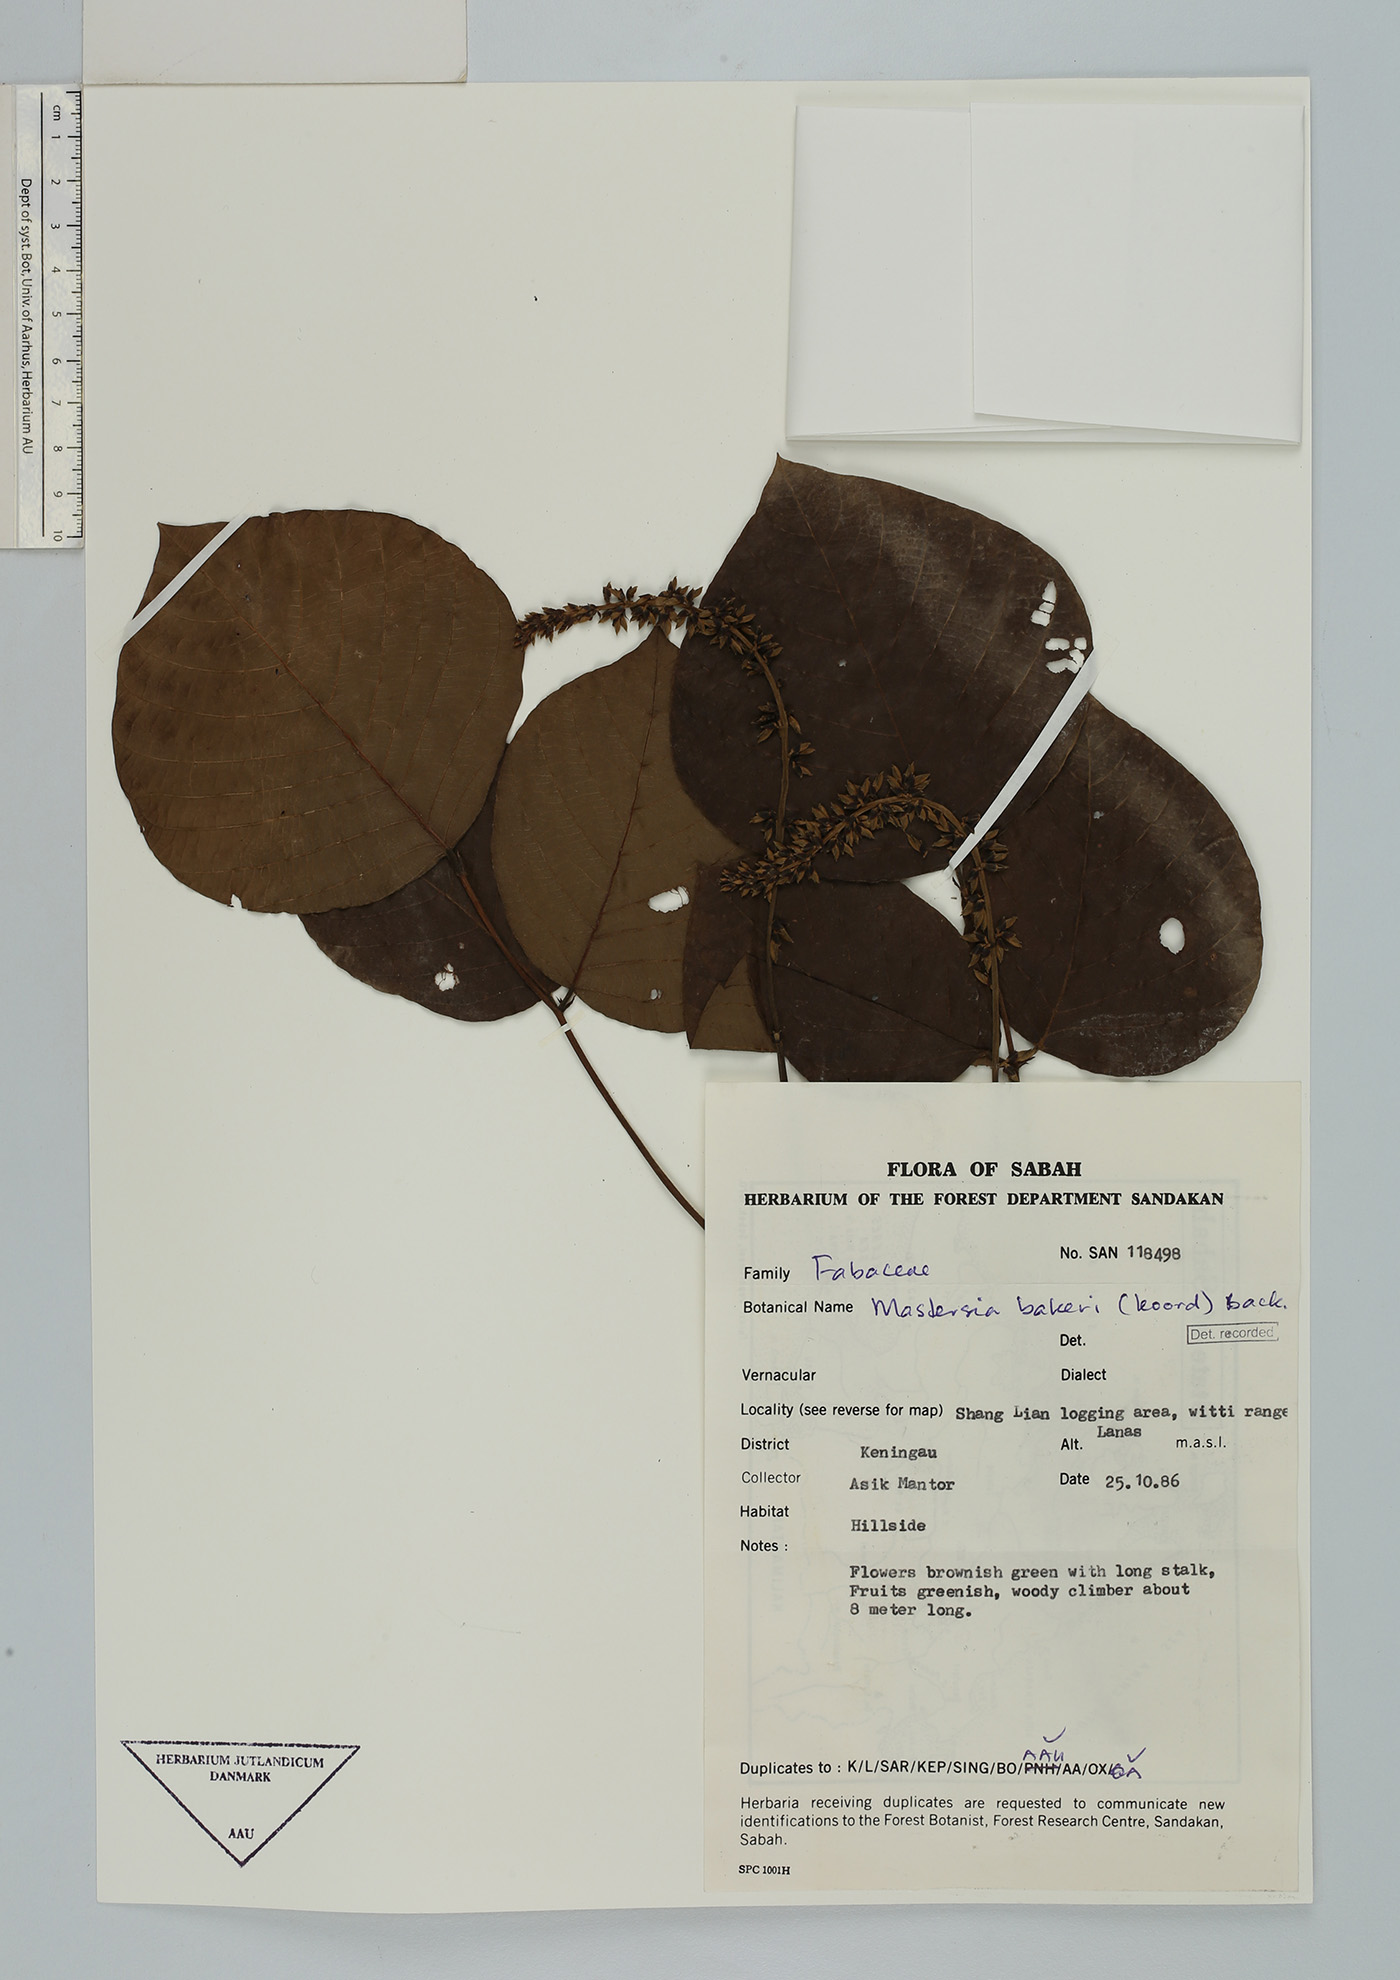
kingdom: Plantae
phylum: Tracheophyta
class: Magnoliopsida
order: Fabales
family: Fabaceae
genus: Mastersia
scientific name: Mastersia bakeri
